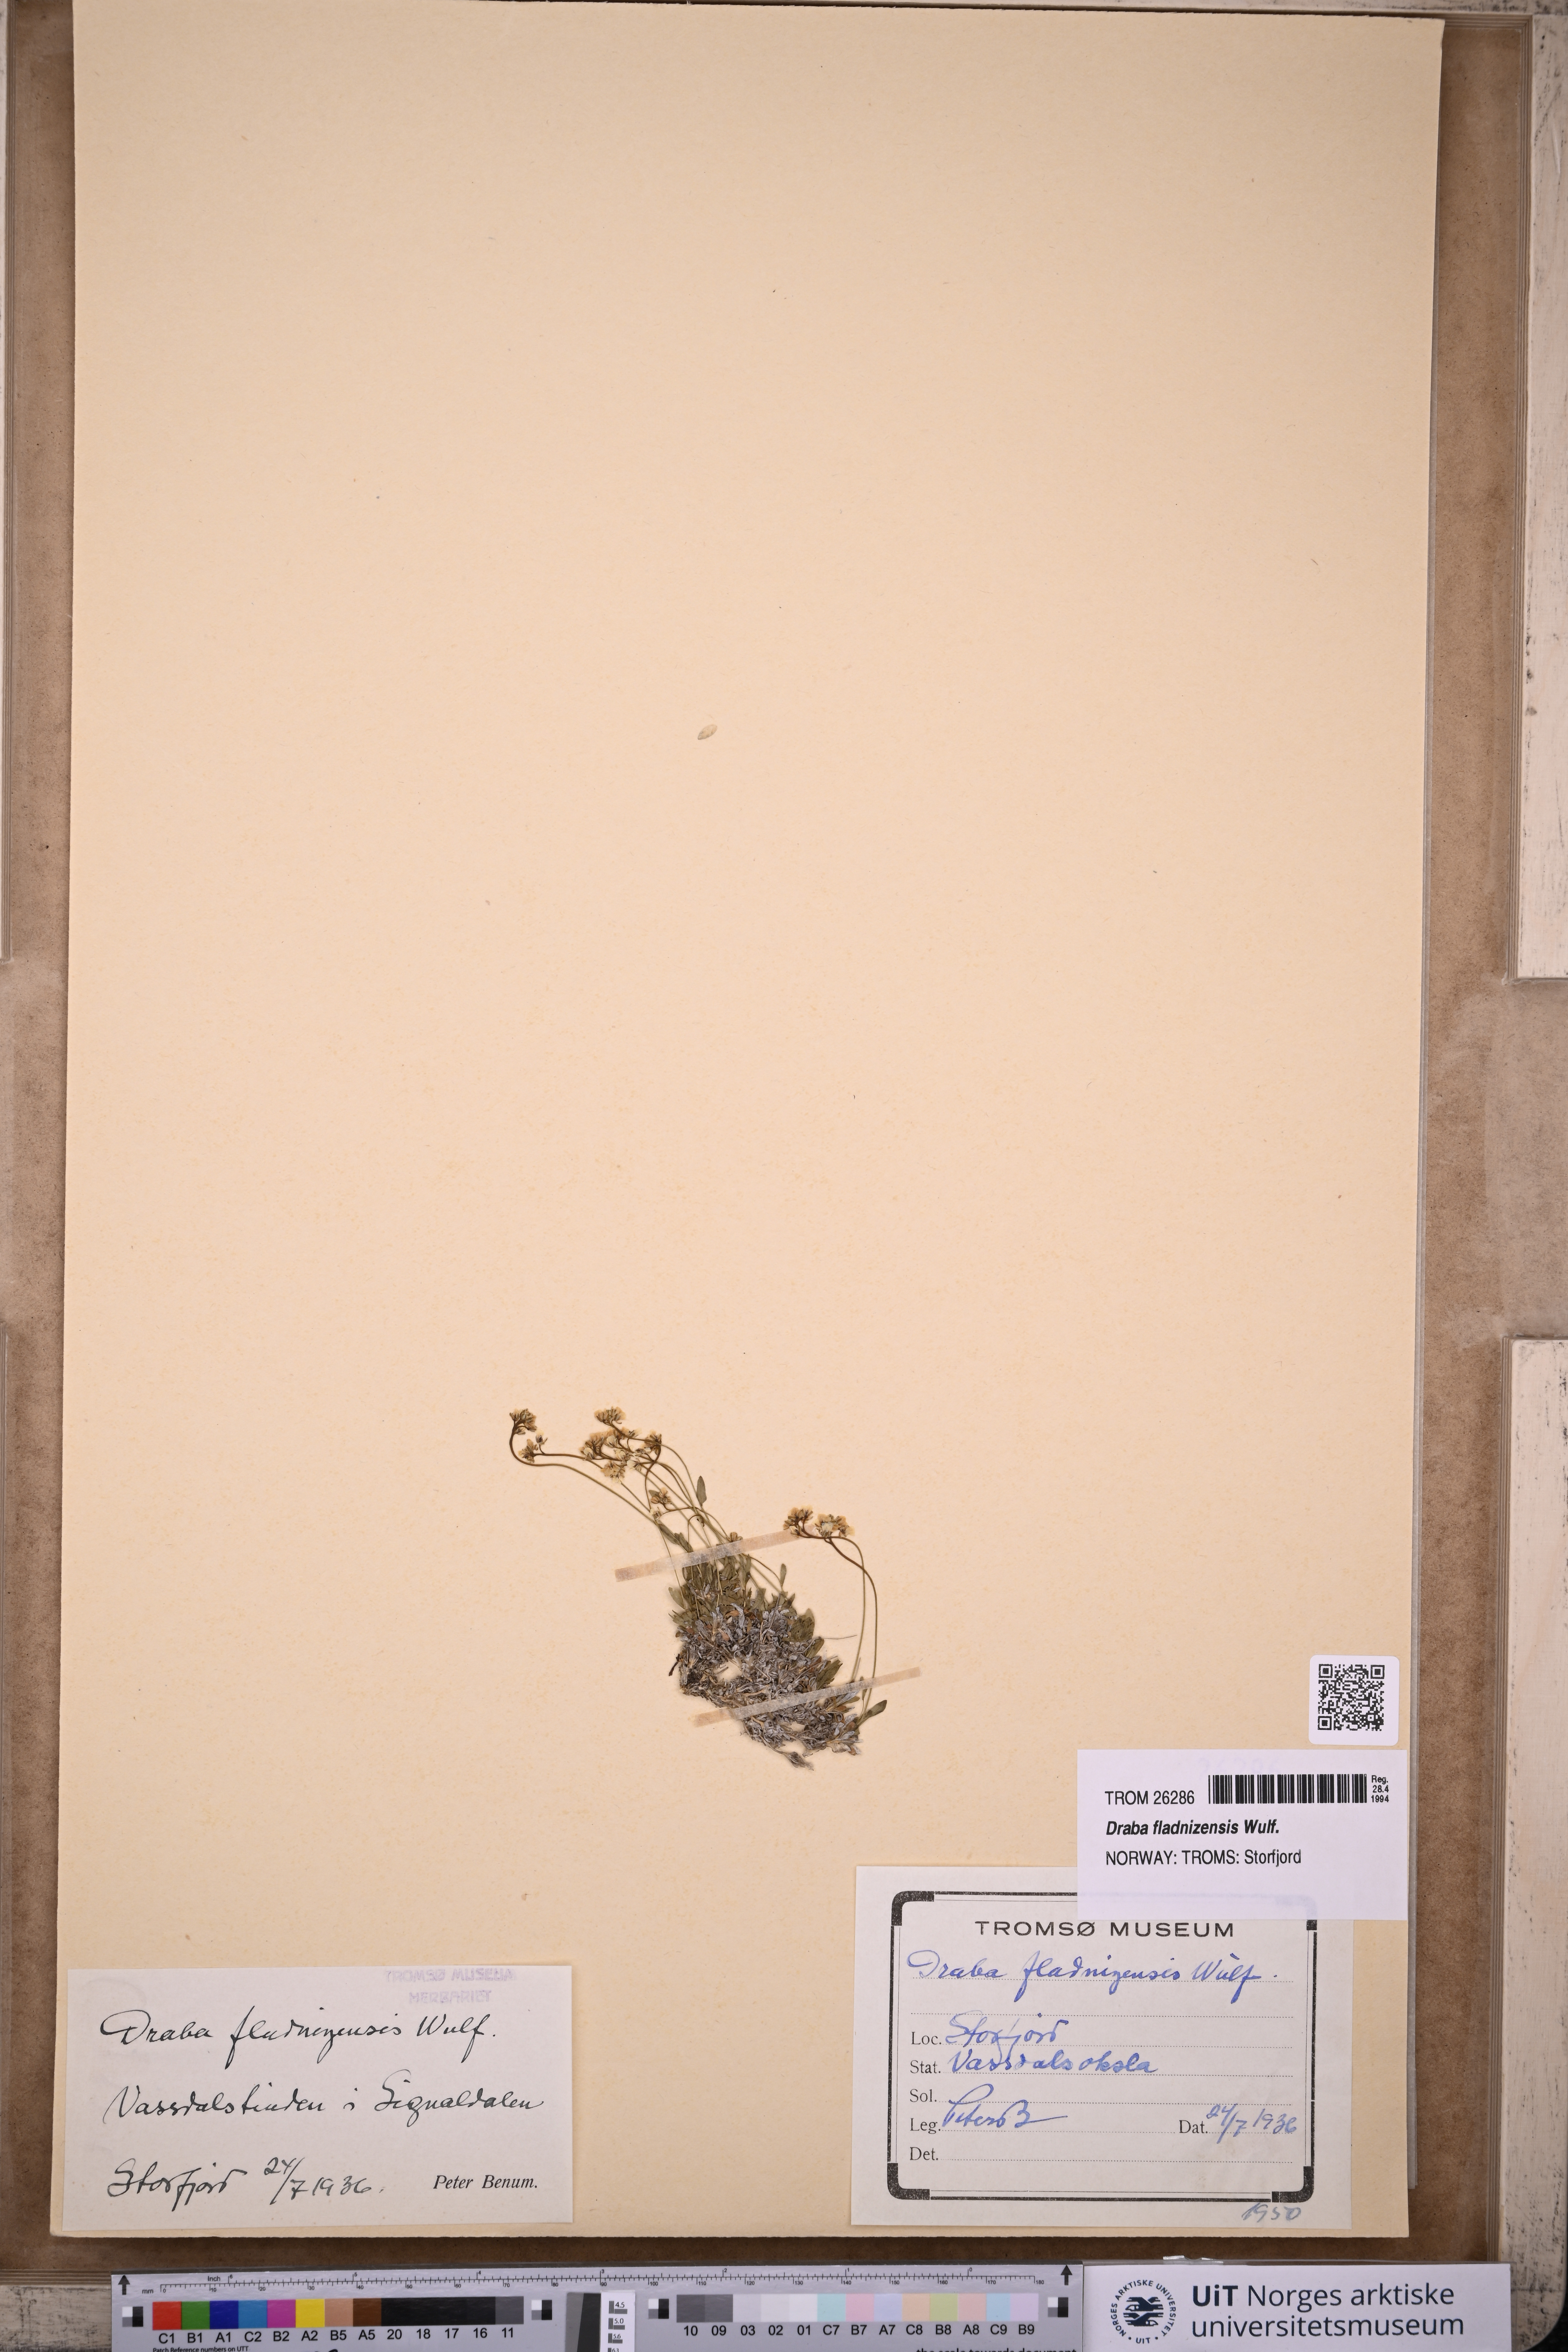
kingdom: Plantae
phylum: Tracheophyta
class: Magnoliopsida
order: Brassicales
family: Brassicaceae
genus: Draba
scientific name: Draba fladnizensis
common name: Austrian draba
